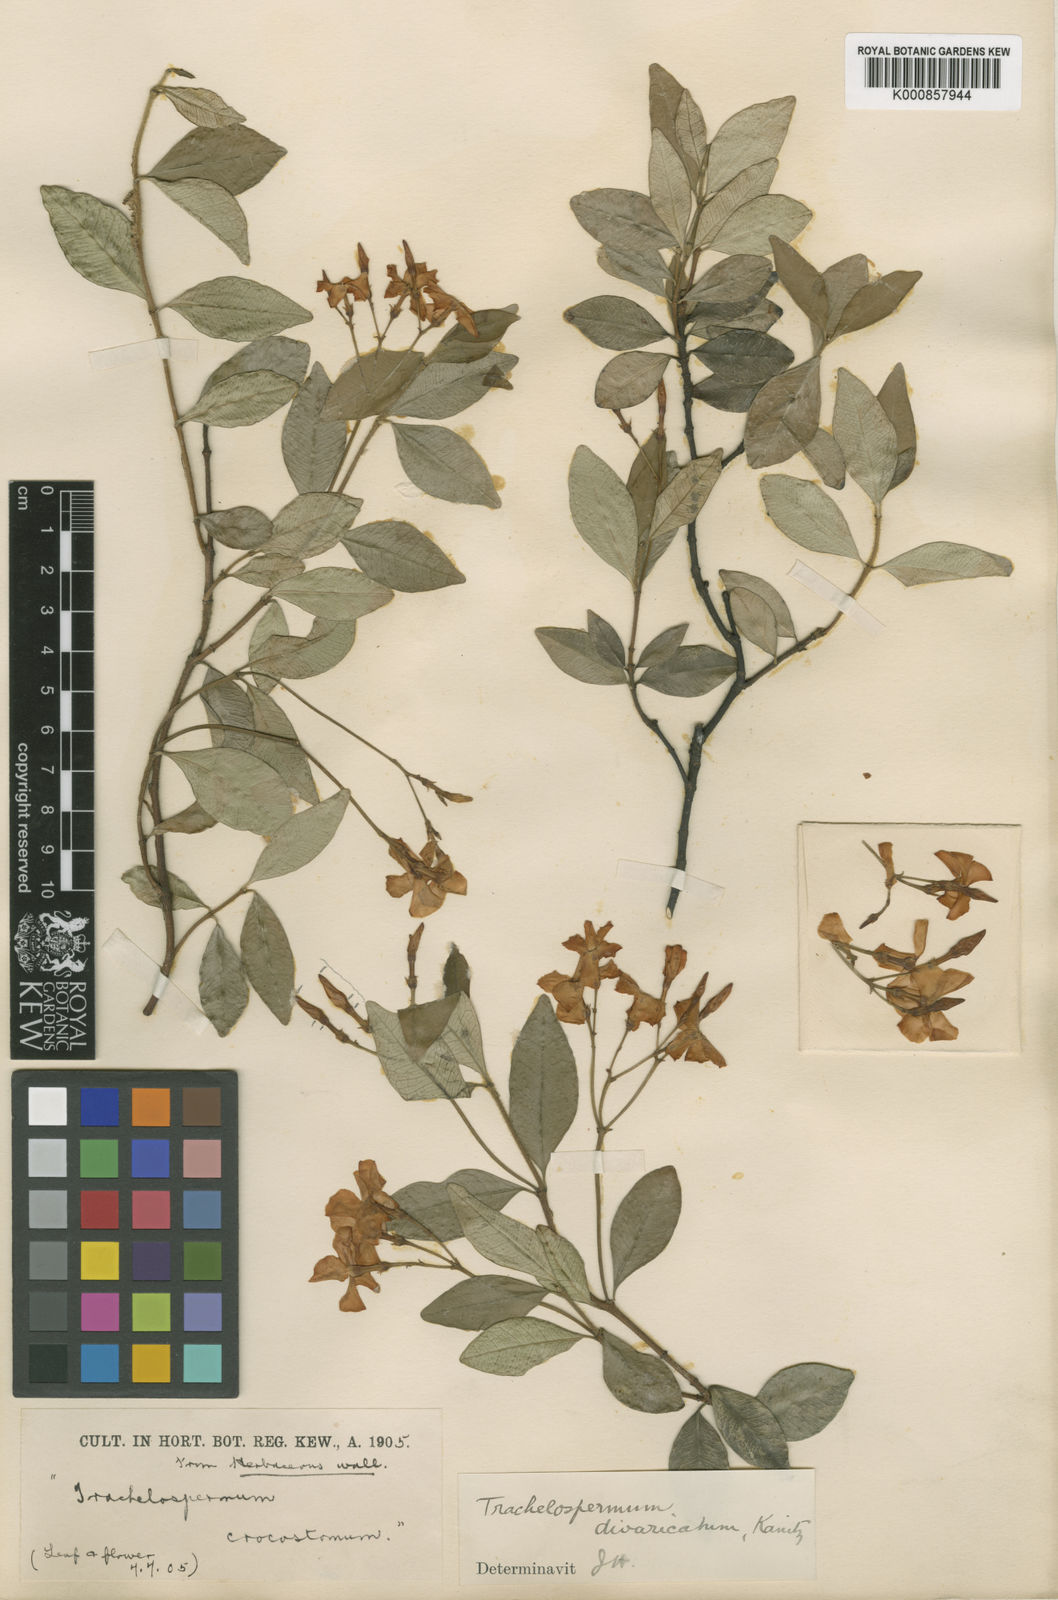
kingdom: Plantae
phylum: Tracheophyta
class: Magnoliopsida
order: Gentianales
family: Apocynaceae
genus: Trachelospermum
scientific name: Trachelospermum asiaticum
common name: Asiatic jasmine
